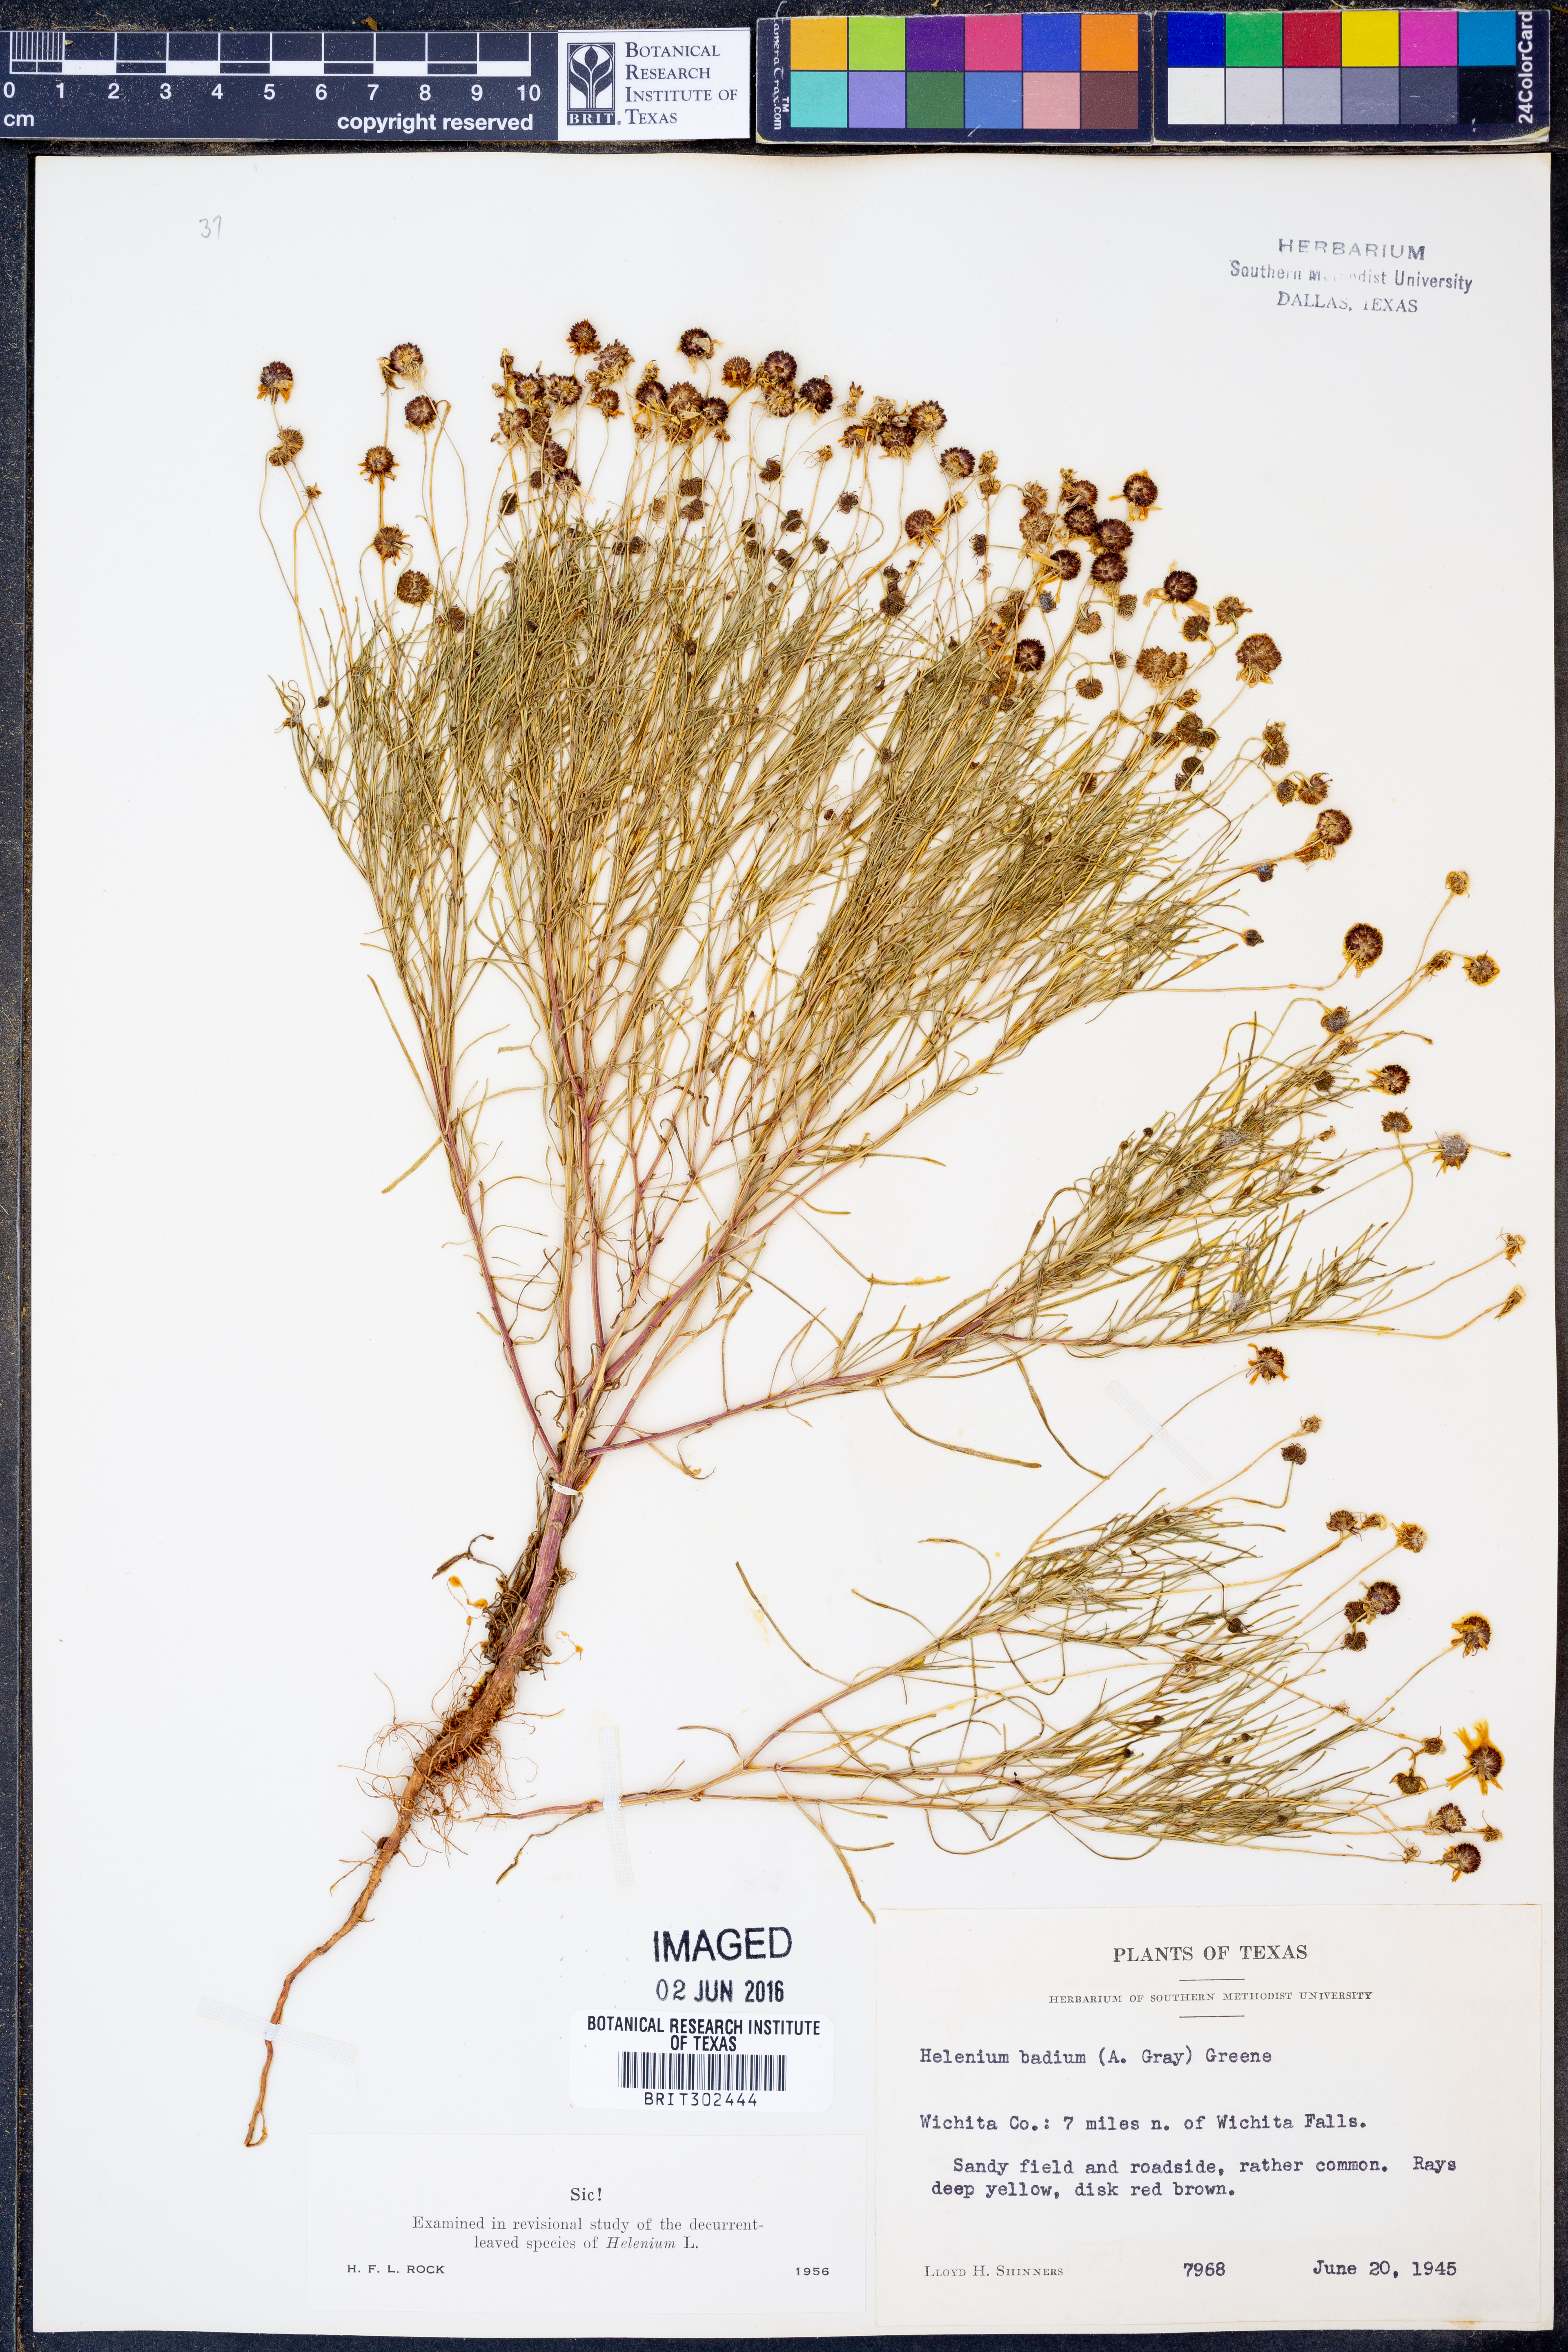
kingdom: Plantae
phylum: Tracheophyta
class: Magnoliopsida
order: Asterales
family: Asteraceae
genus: Helenium
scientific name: Helenium amarum
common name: Bitter sneezeweed
